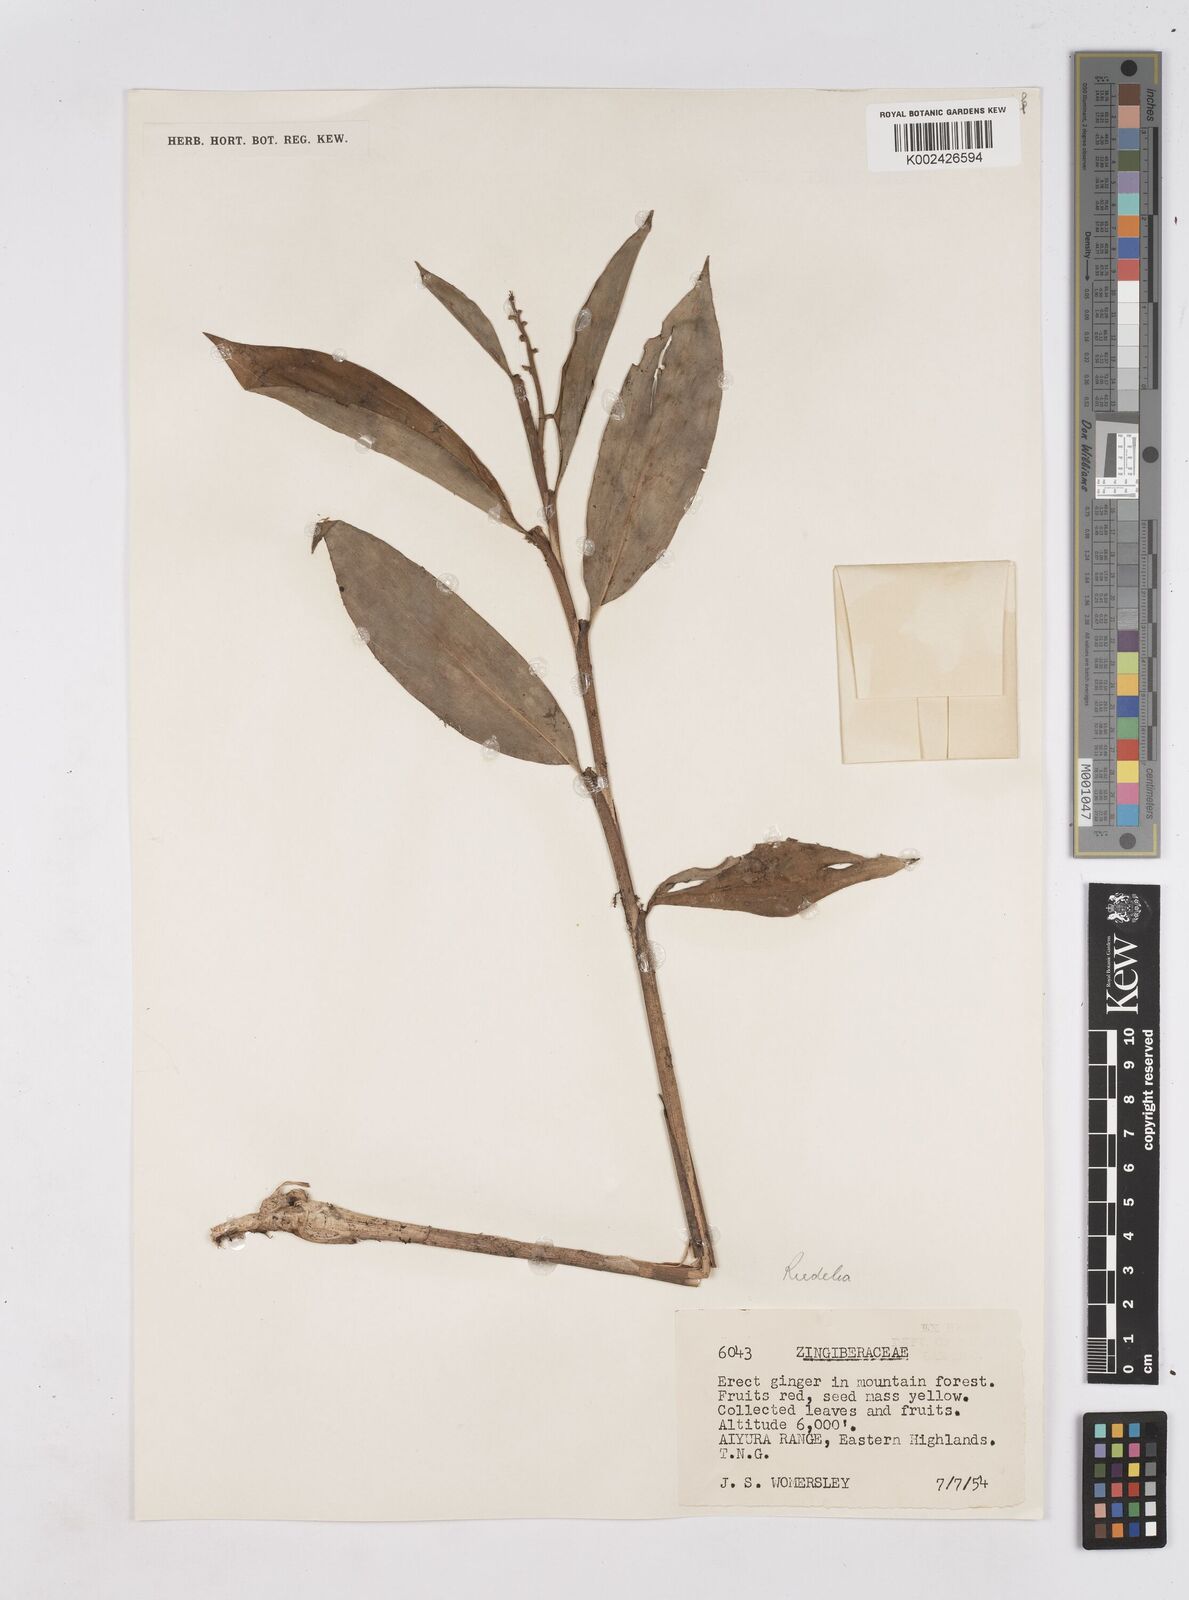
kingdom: Plantae
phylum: Tracheophyta
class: Liliopsida
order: Zingiberales
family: Zingiberaceae
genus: Riedelia
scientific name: Riedelia
